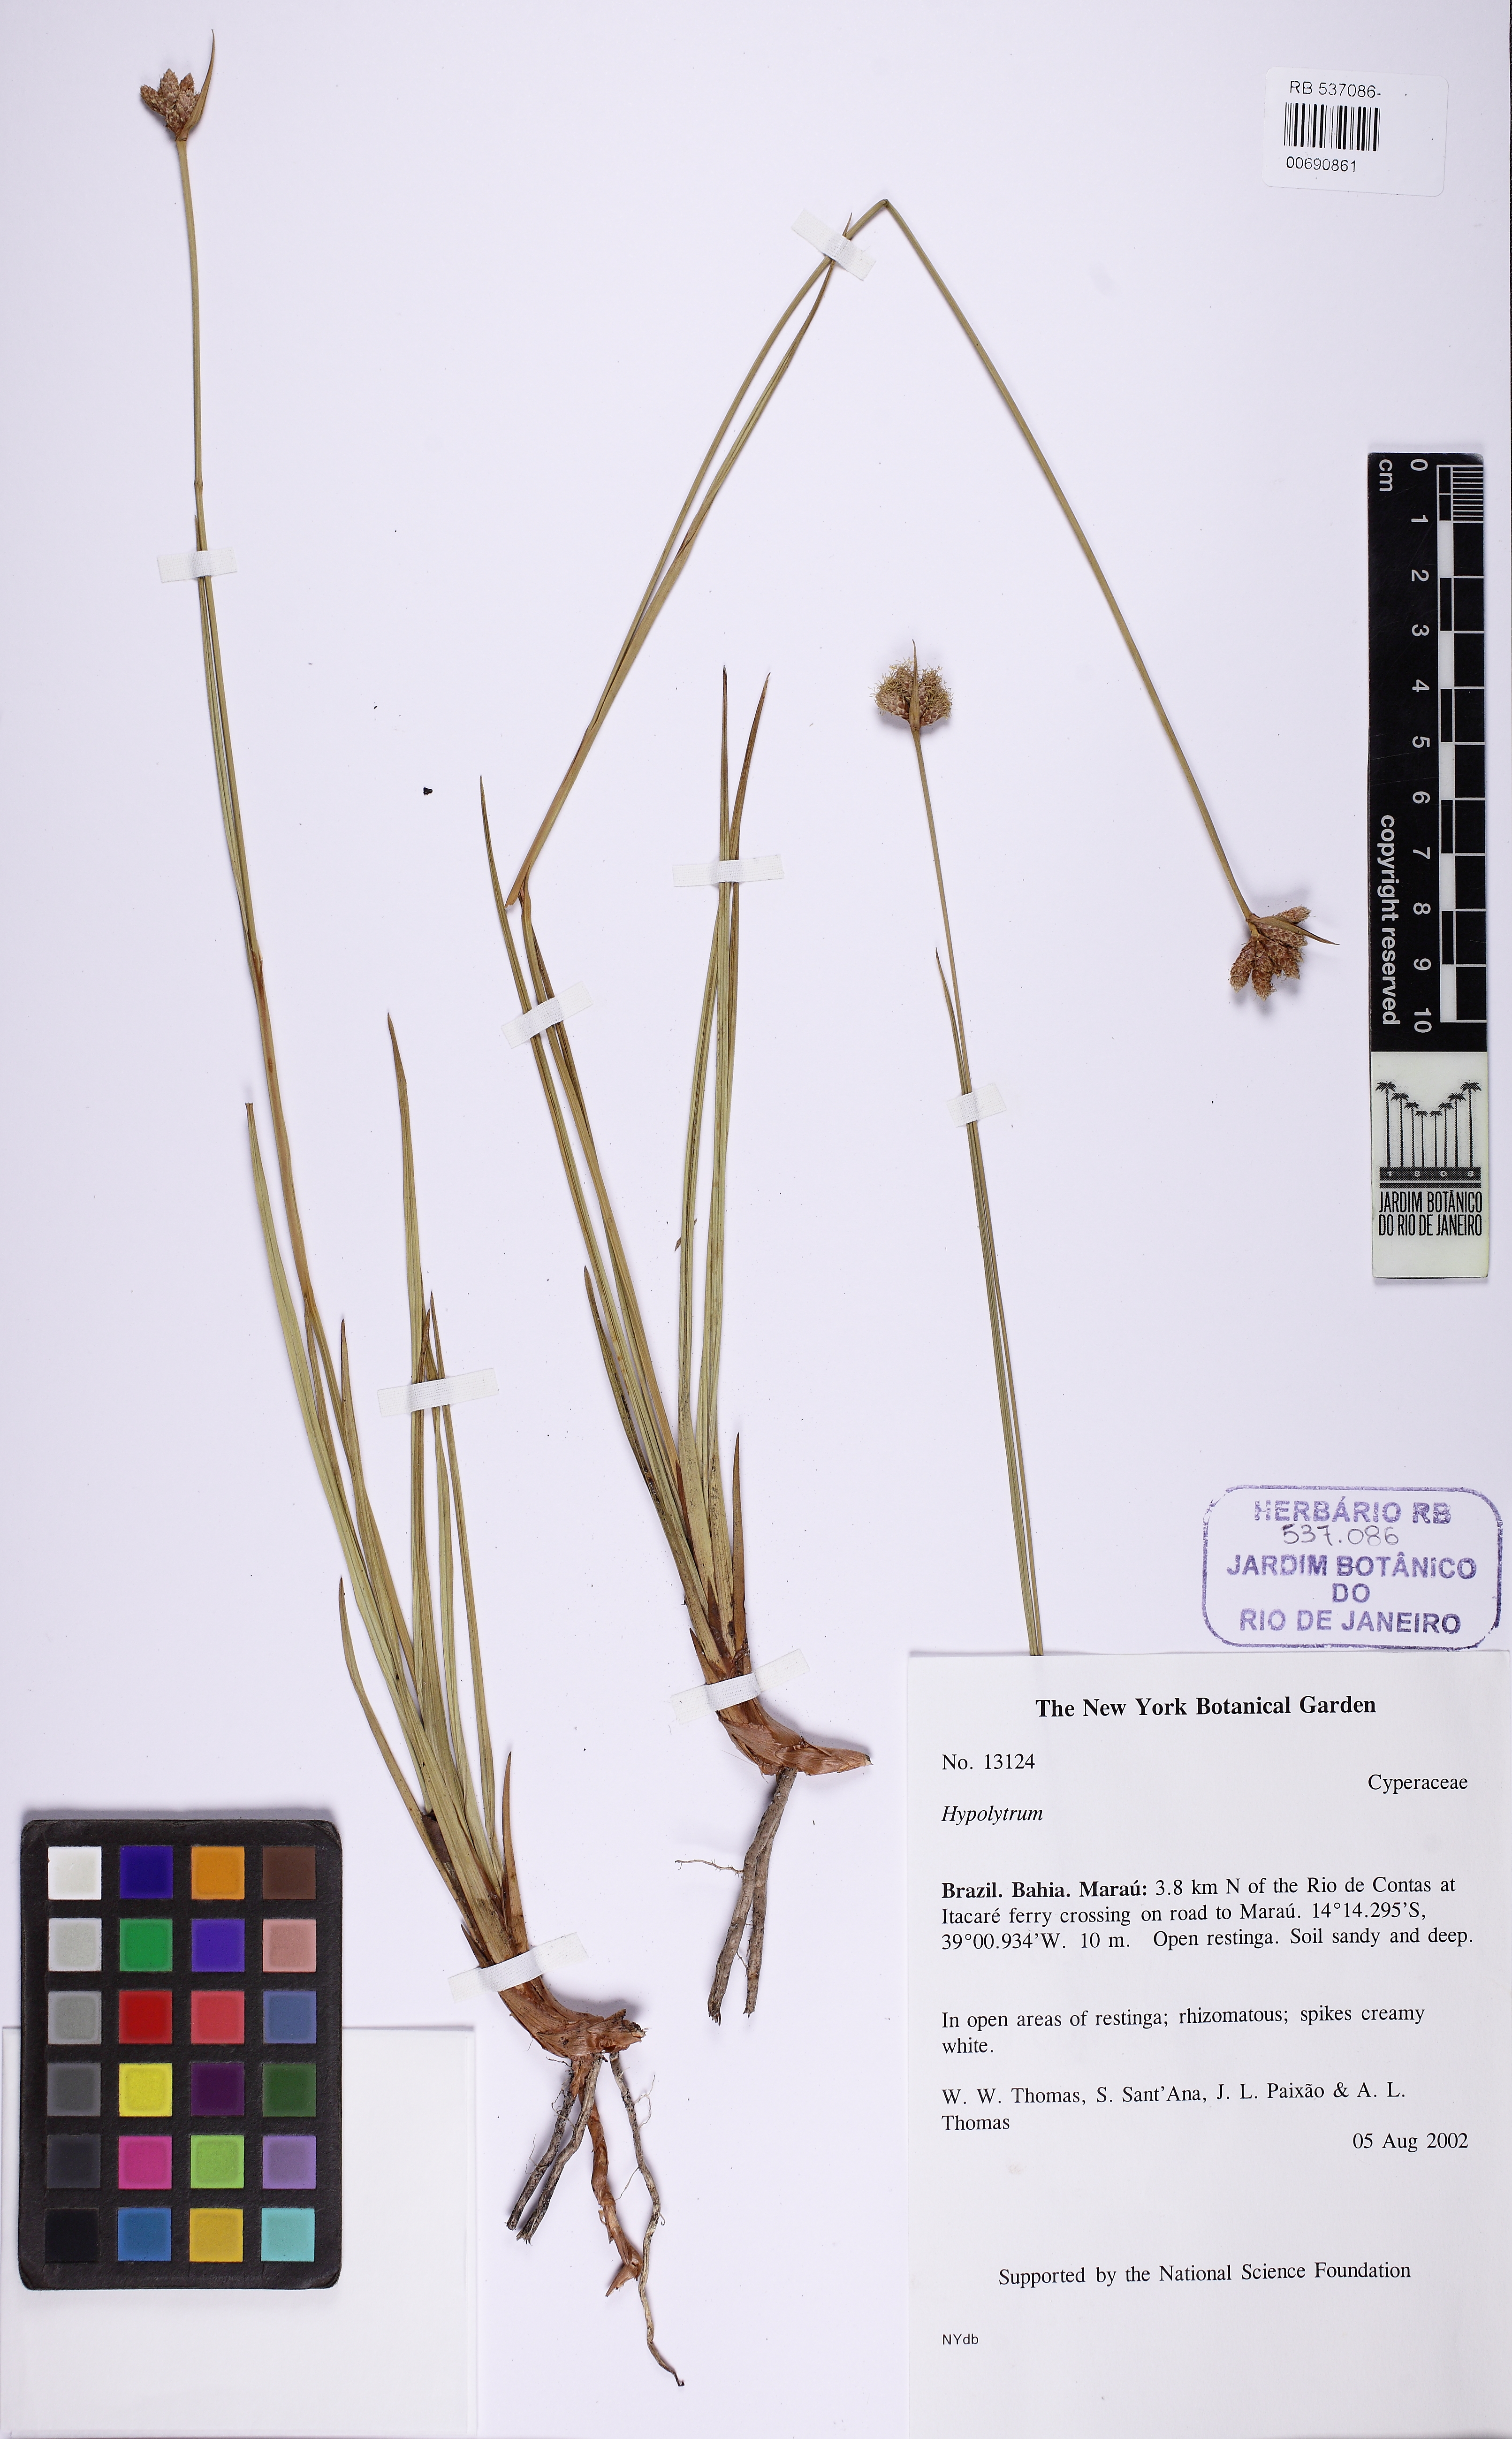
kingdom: Plantae
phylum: Tracheophyta
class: Liliopsida
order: Poales
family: Cyperaceae
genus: Hypolytrum
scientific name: Hypolytrum pulchrum
